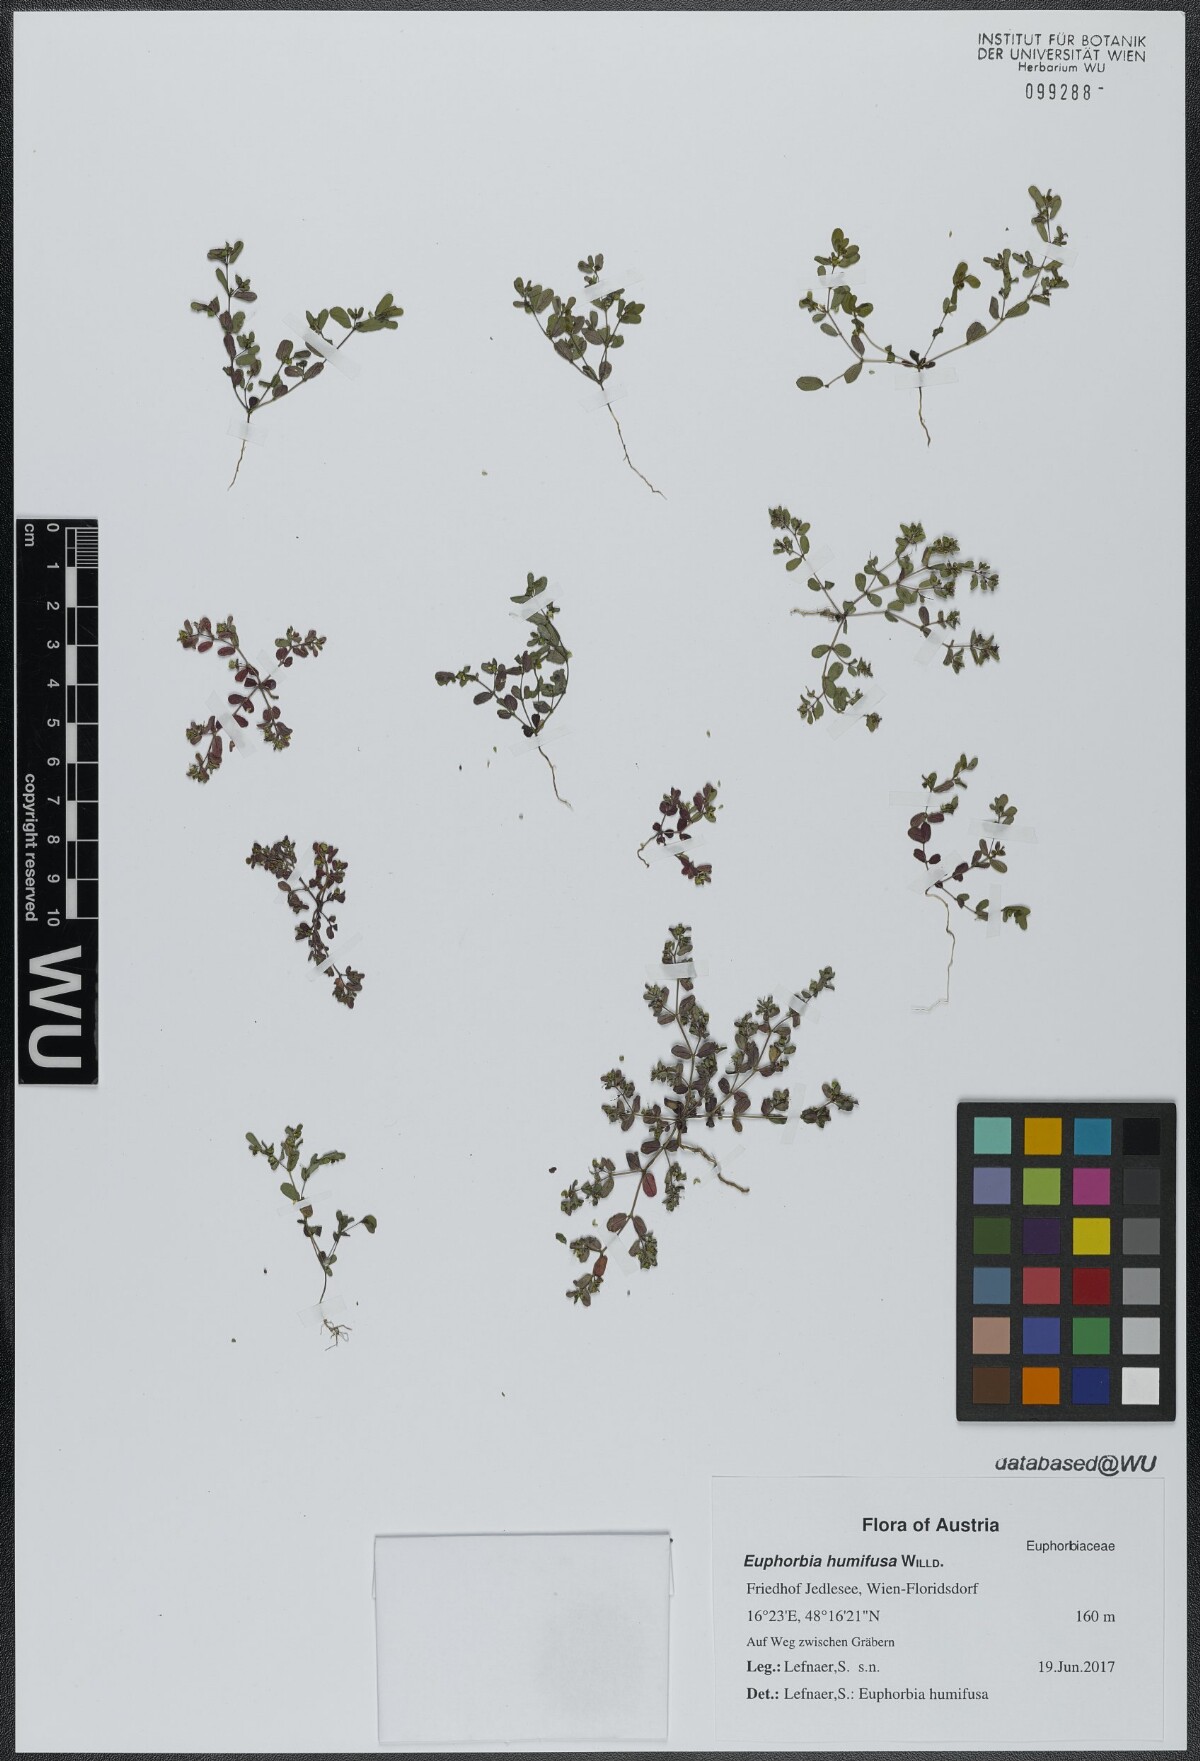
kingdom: Plantae
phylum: Tracheophyta
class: Magnoliopsida
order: Malpighiales
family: Euphorbiaceae
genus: Euphorbia
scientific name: Euphorbia humifusa
